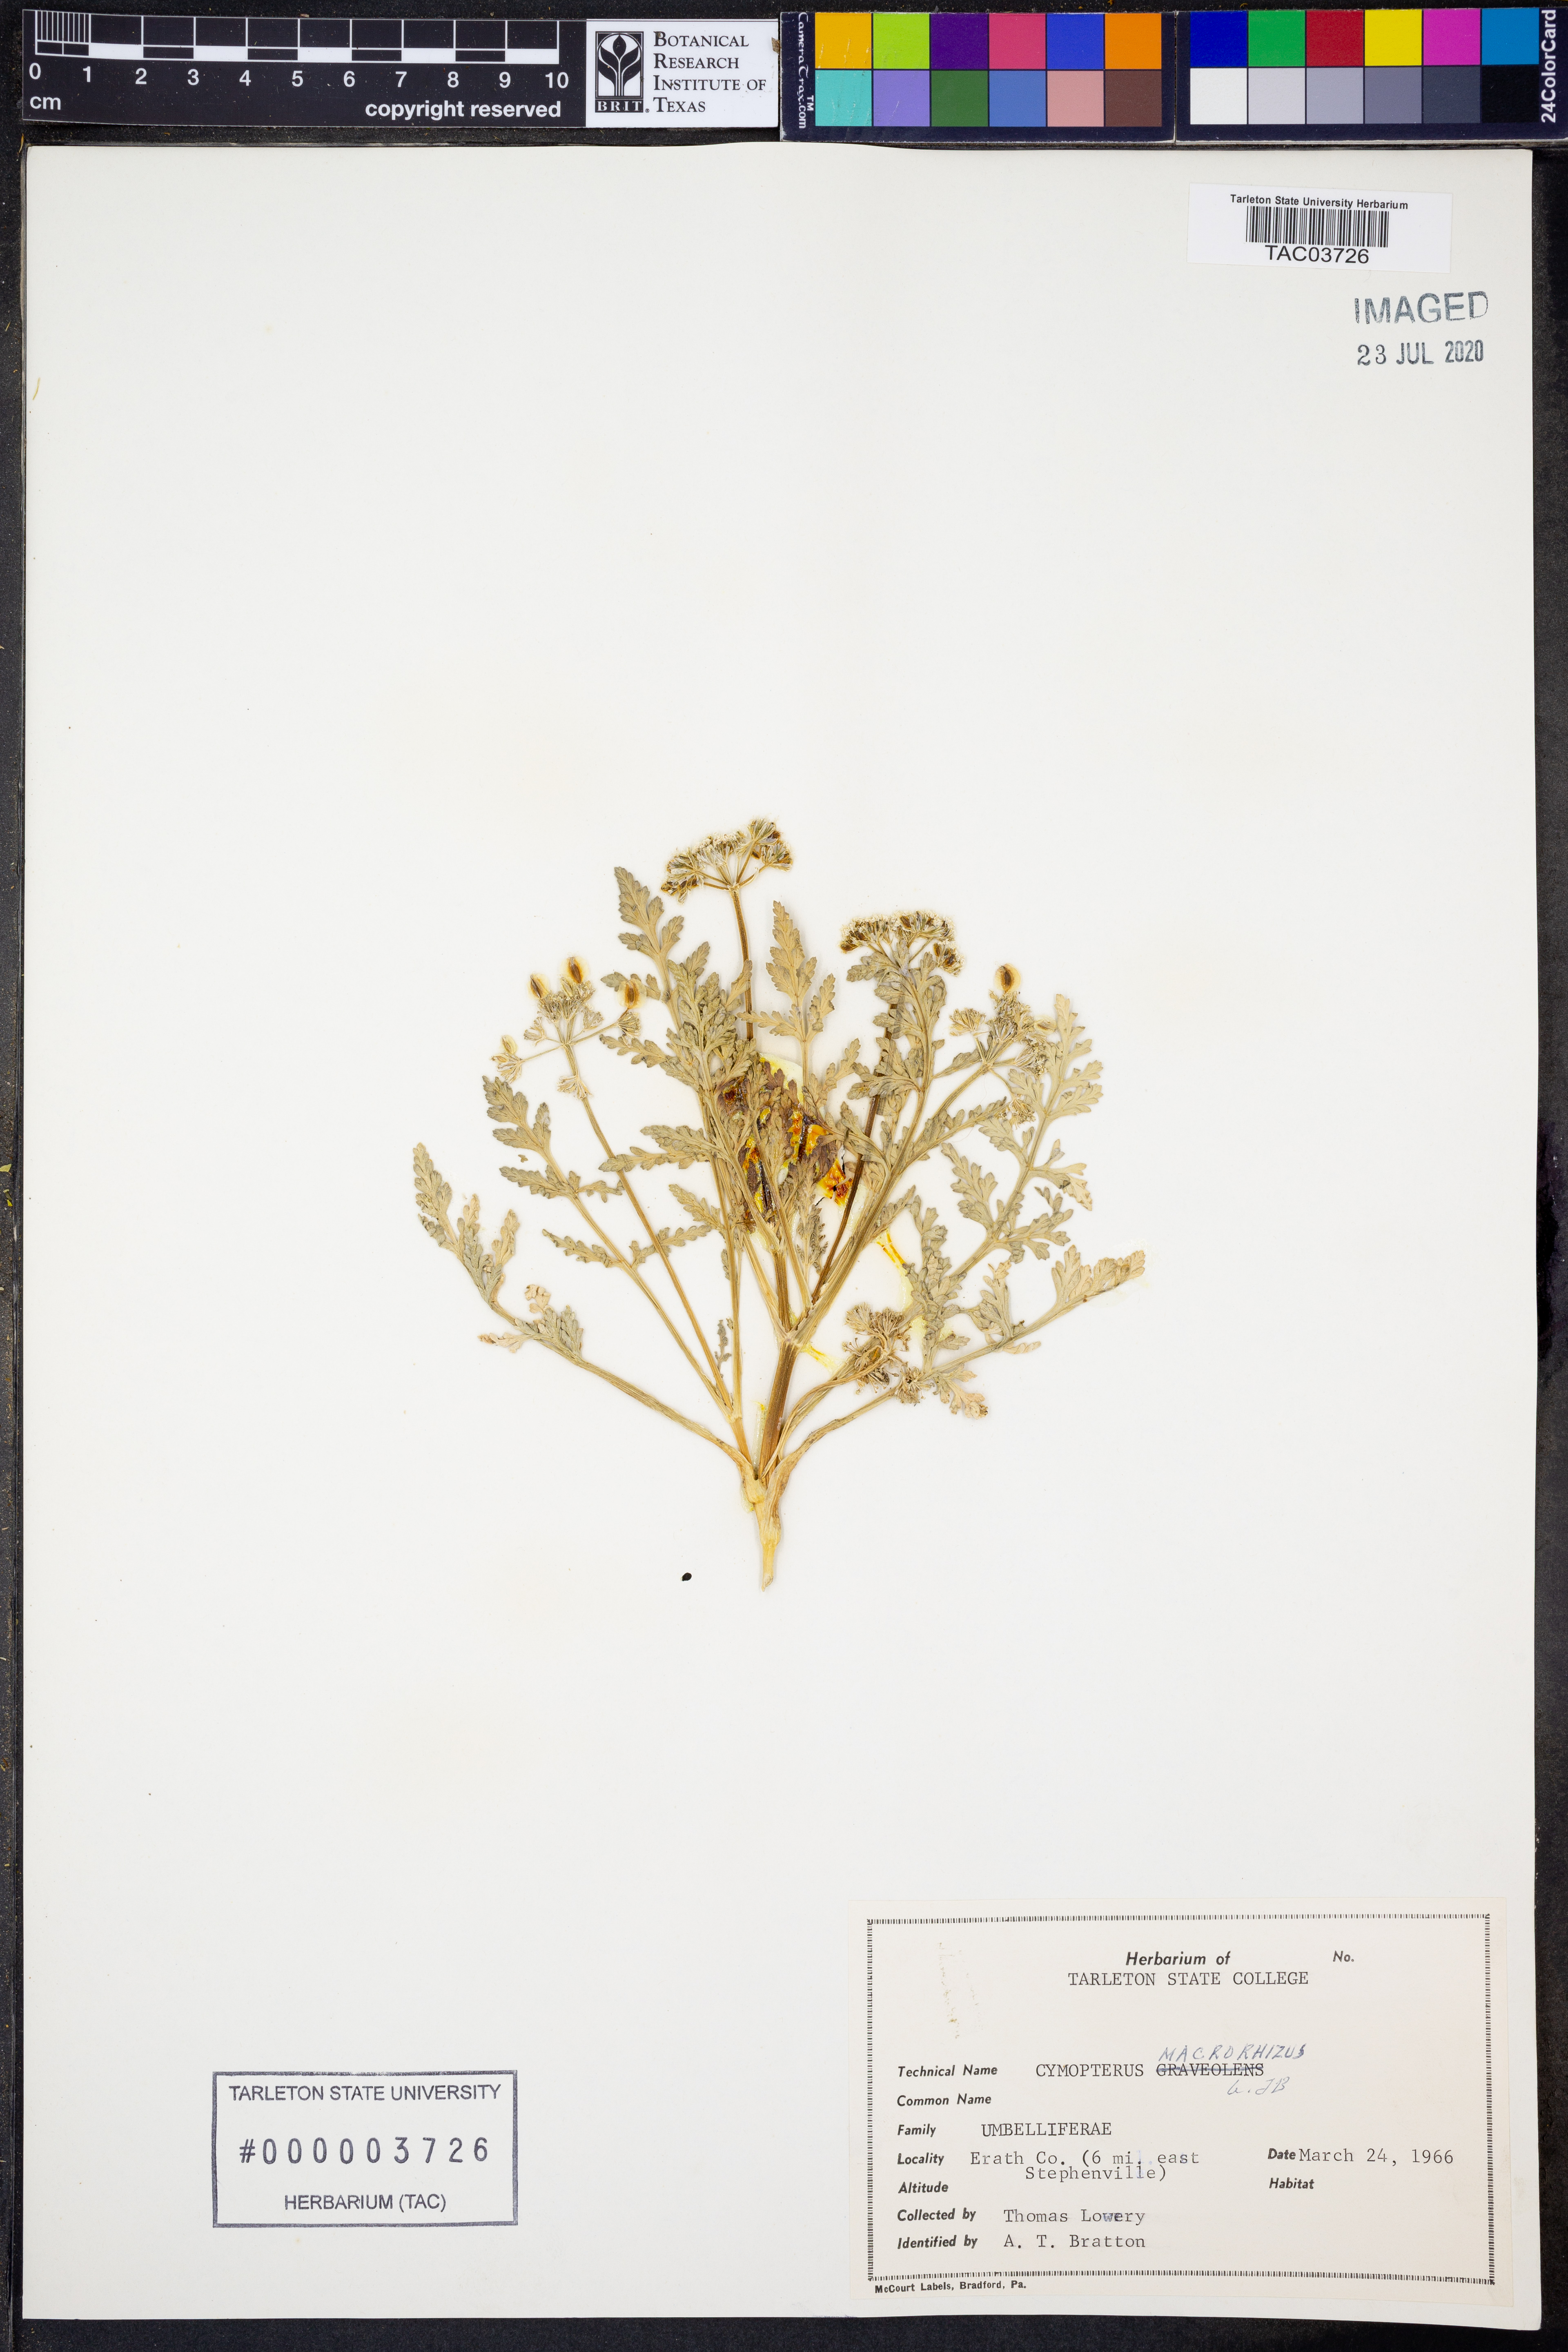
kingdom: Plantae
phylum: Tracheophyta
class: Magnoliopsida
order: Apiales
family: Apiaceae
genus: Vesper
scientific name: Vesper macrorhizus
